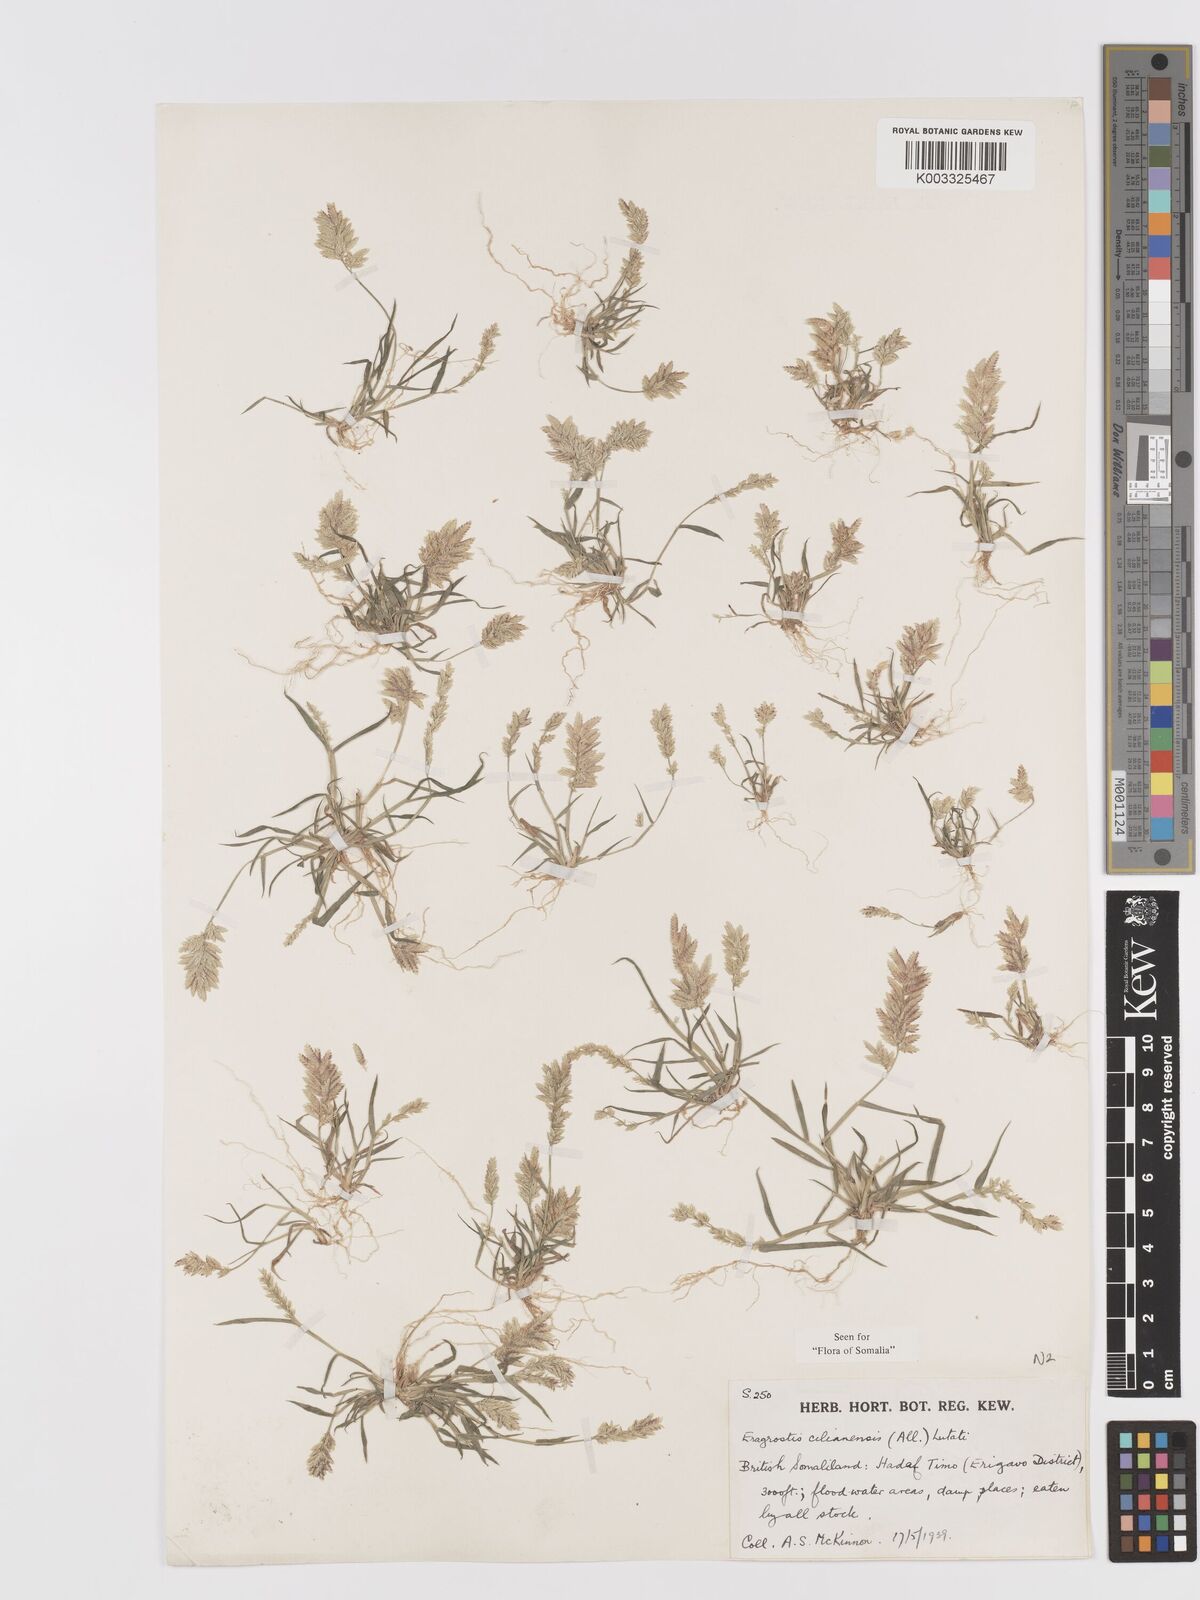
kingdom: Plantae
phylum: Tracheophyta
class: Liliopsida
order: Poales
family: Poaceae
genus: Eragrostis
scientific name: Eragrostis cilianensis
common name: Stinkgrass
